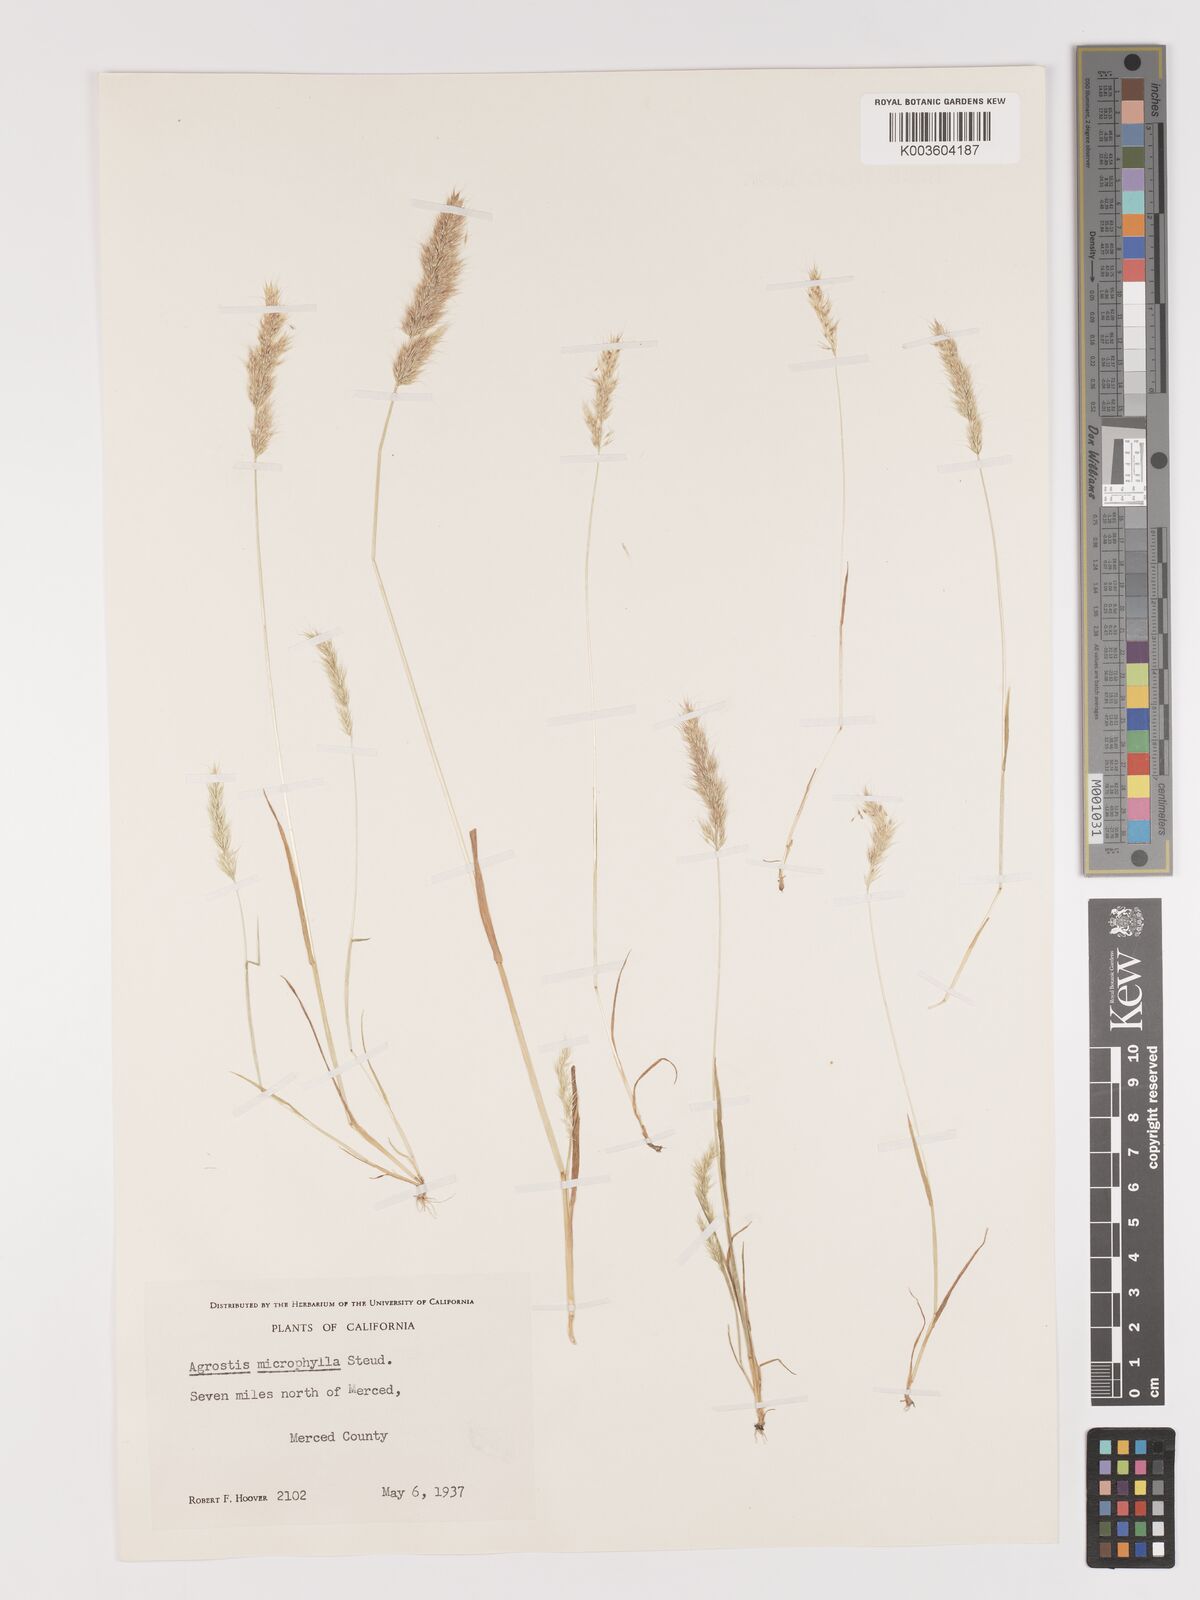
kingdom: Plantae
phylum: Tracheophyta
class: Liliopsida
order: Poales
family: Poaceae
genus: Agrostis
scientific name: Agrostis microphylla
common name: Small-leaf bent
